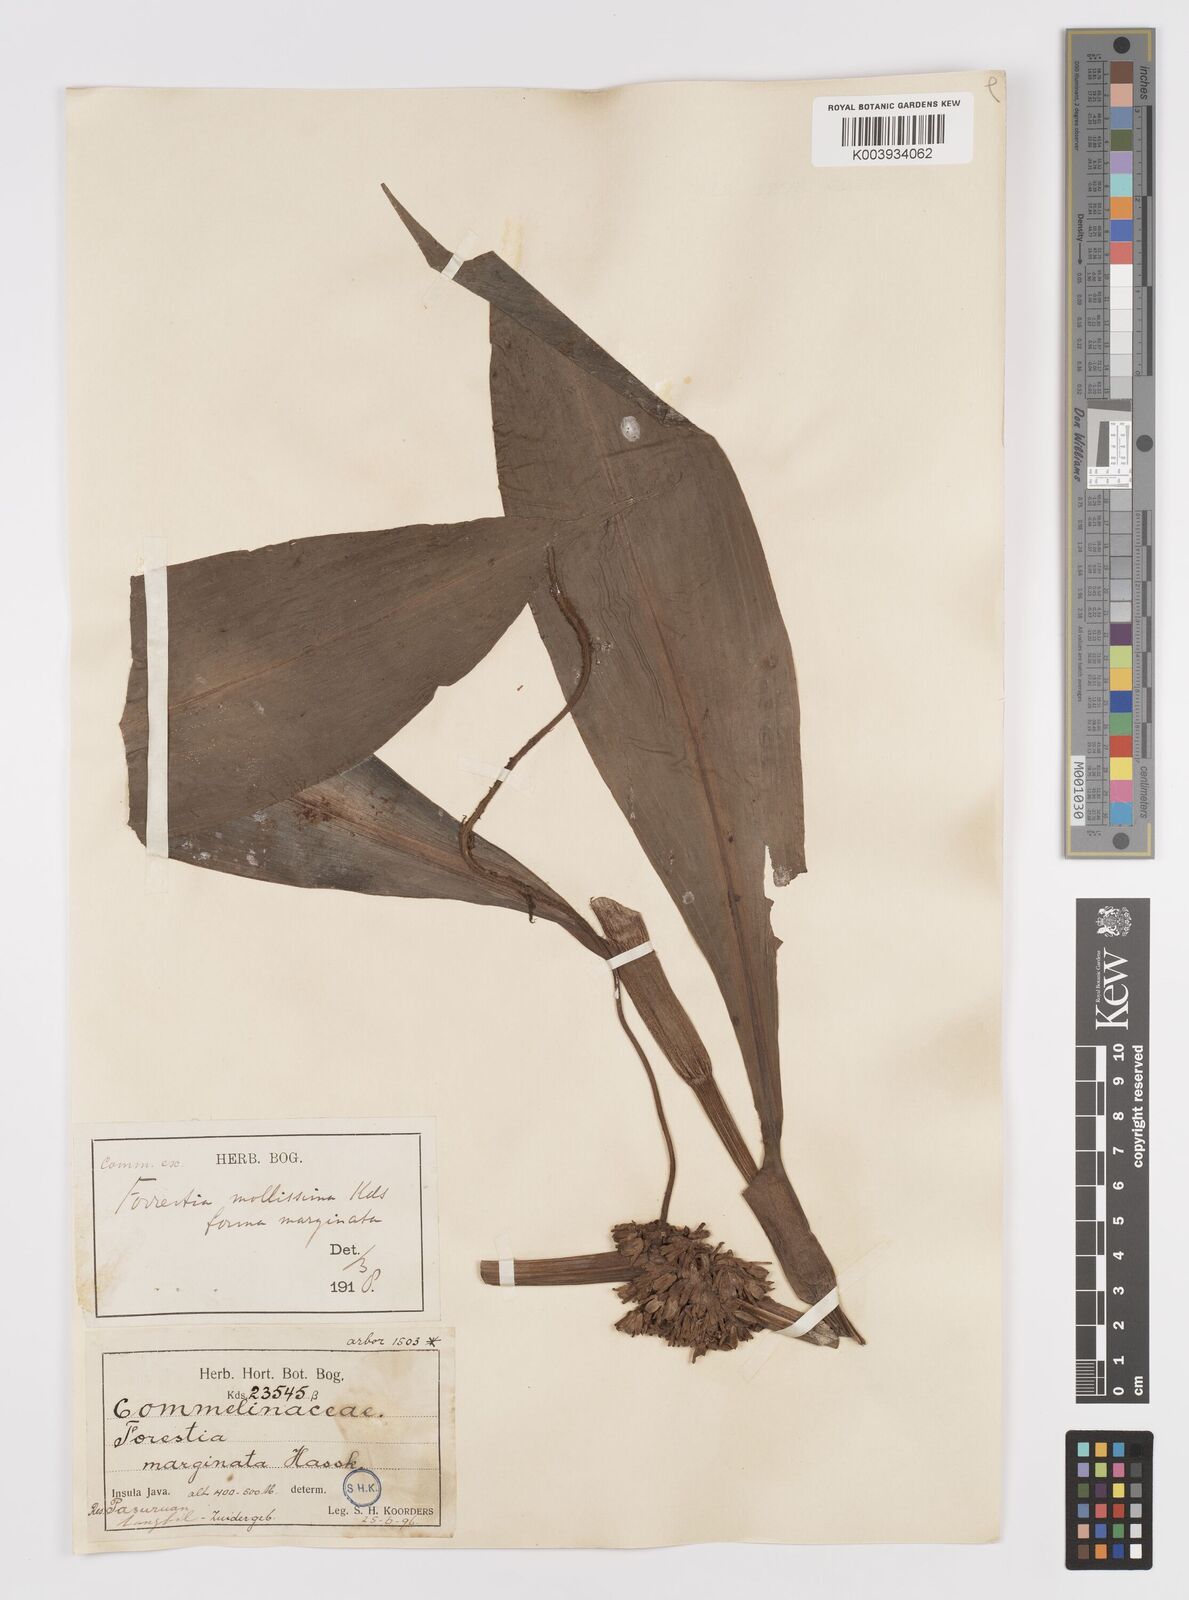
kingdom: Plantae
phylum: Tracheophyta
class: Liliopsida
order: Commelinales
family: Commelinaceae
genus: Amischotolype
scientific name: Amischotolype mollissima
